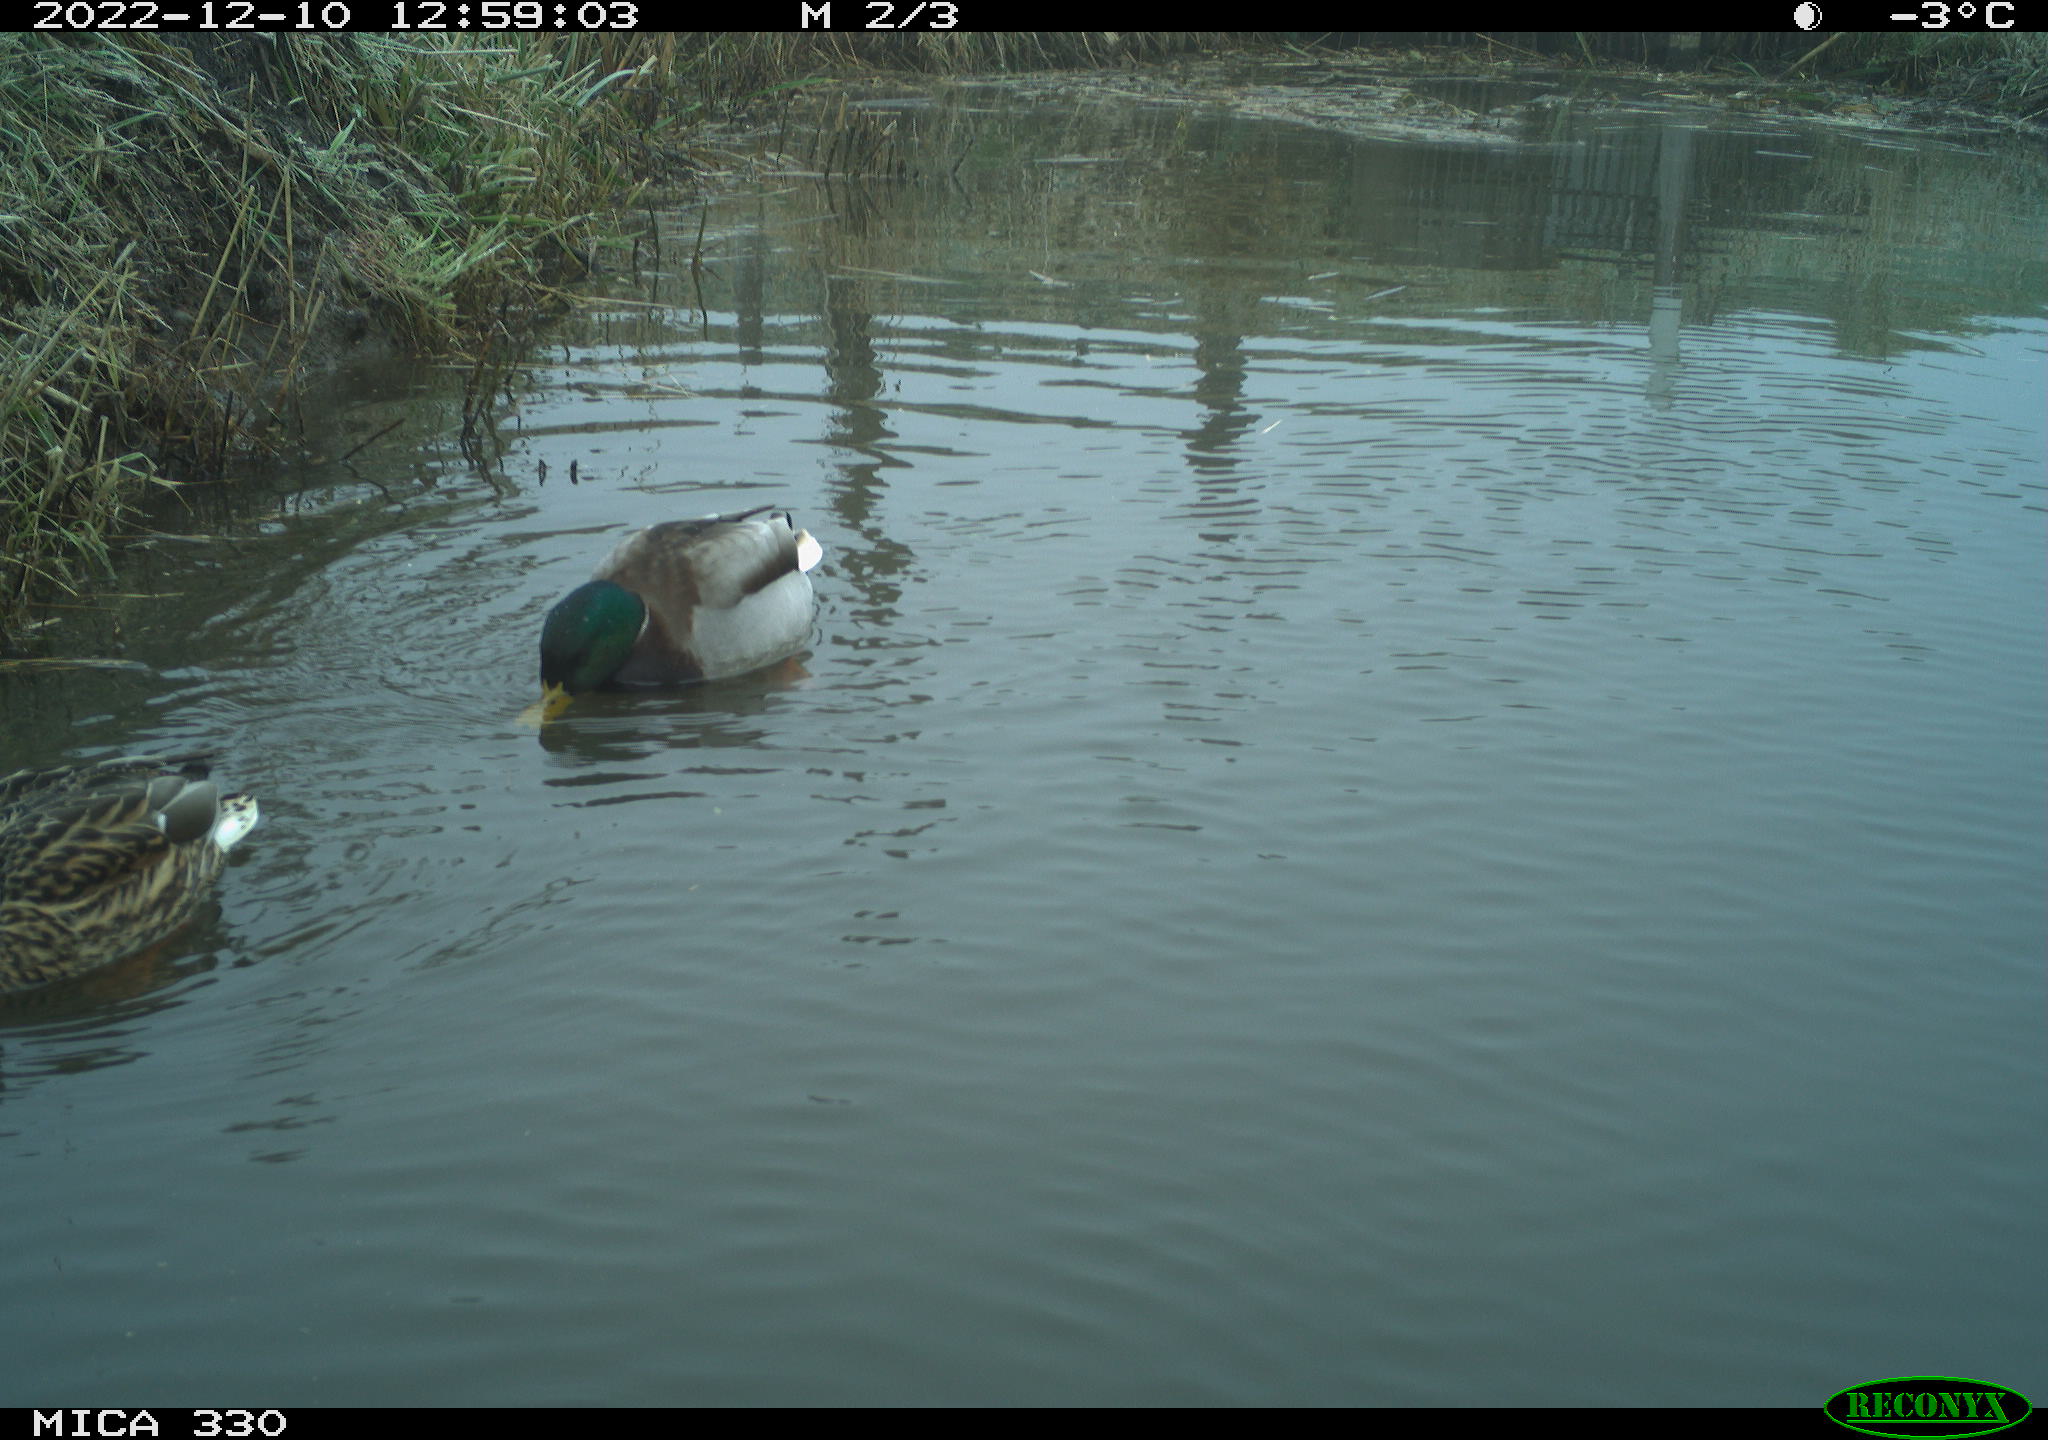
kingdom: Animalia
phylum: Chordata
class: Aves
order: Anseriformes
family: Anatidae
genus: Anas
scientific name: Anas
